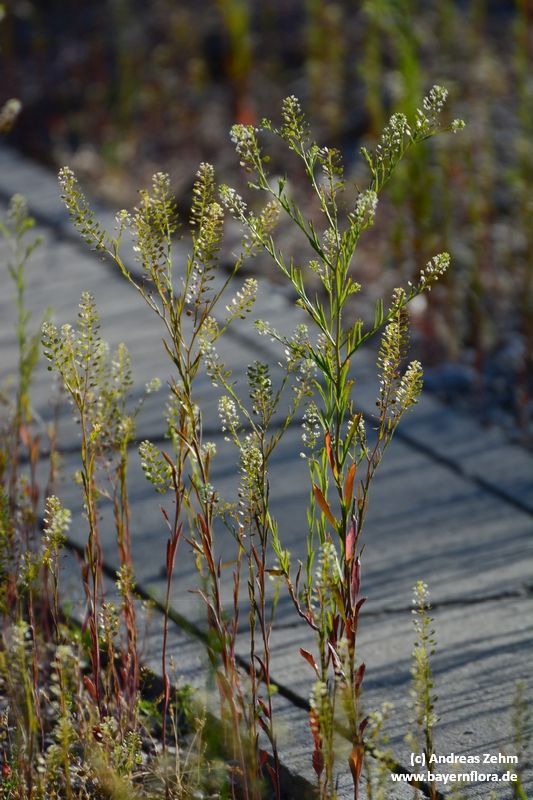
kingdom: Plantae
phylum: Tracheophyta
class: Magnoliopsida
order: Brassicales
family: Brassicaceae
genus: Lepidium
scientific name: Lepidium virginicum
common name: Least pepperwort
